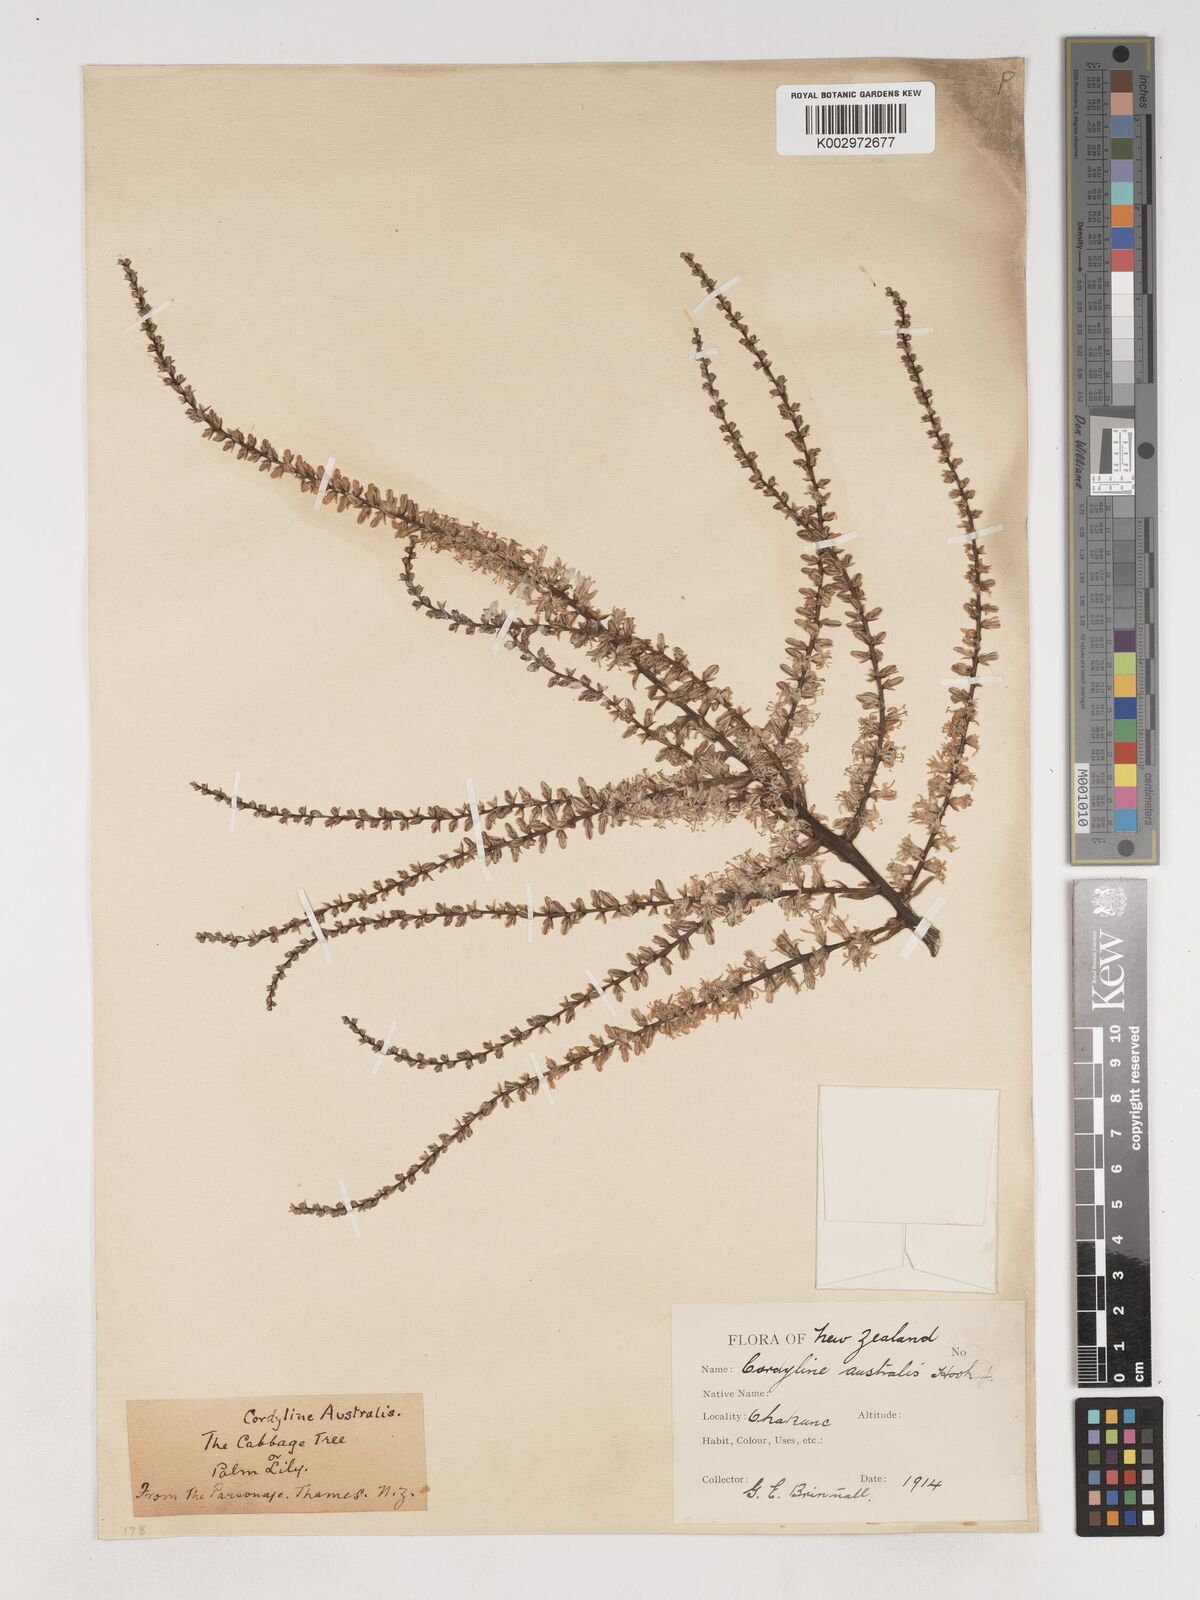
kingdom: Plantae
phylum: Tracheophyta
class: Liliopsida
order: Asparagales
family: Asparagaceae
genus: Cordyline
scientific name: Cordyline australis
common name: Cabbage-palm
